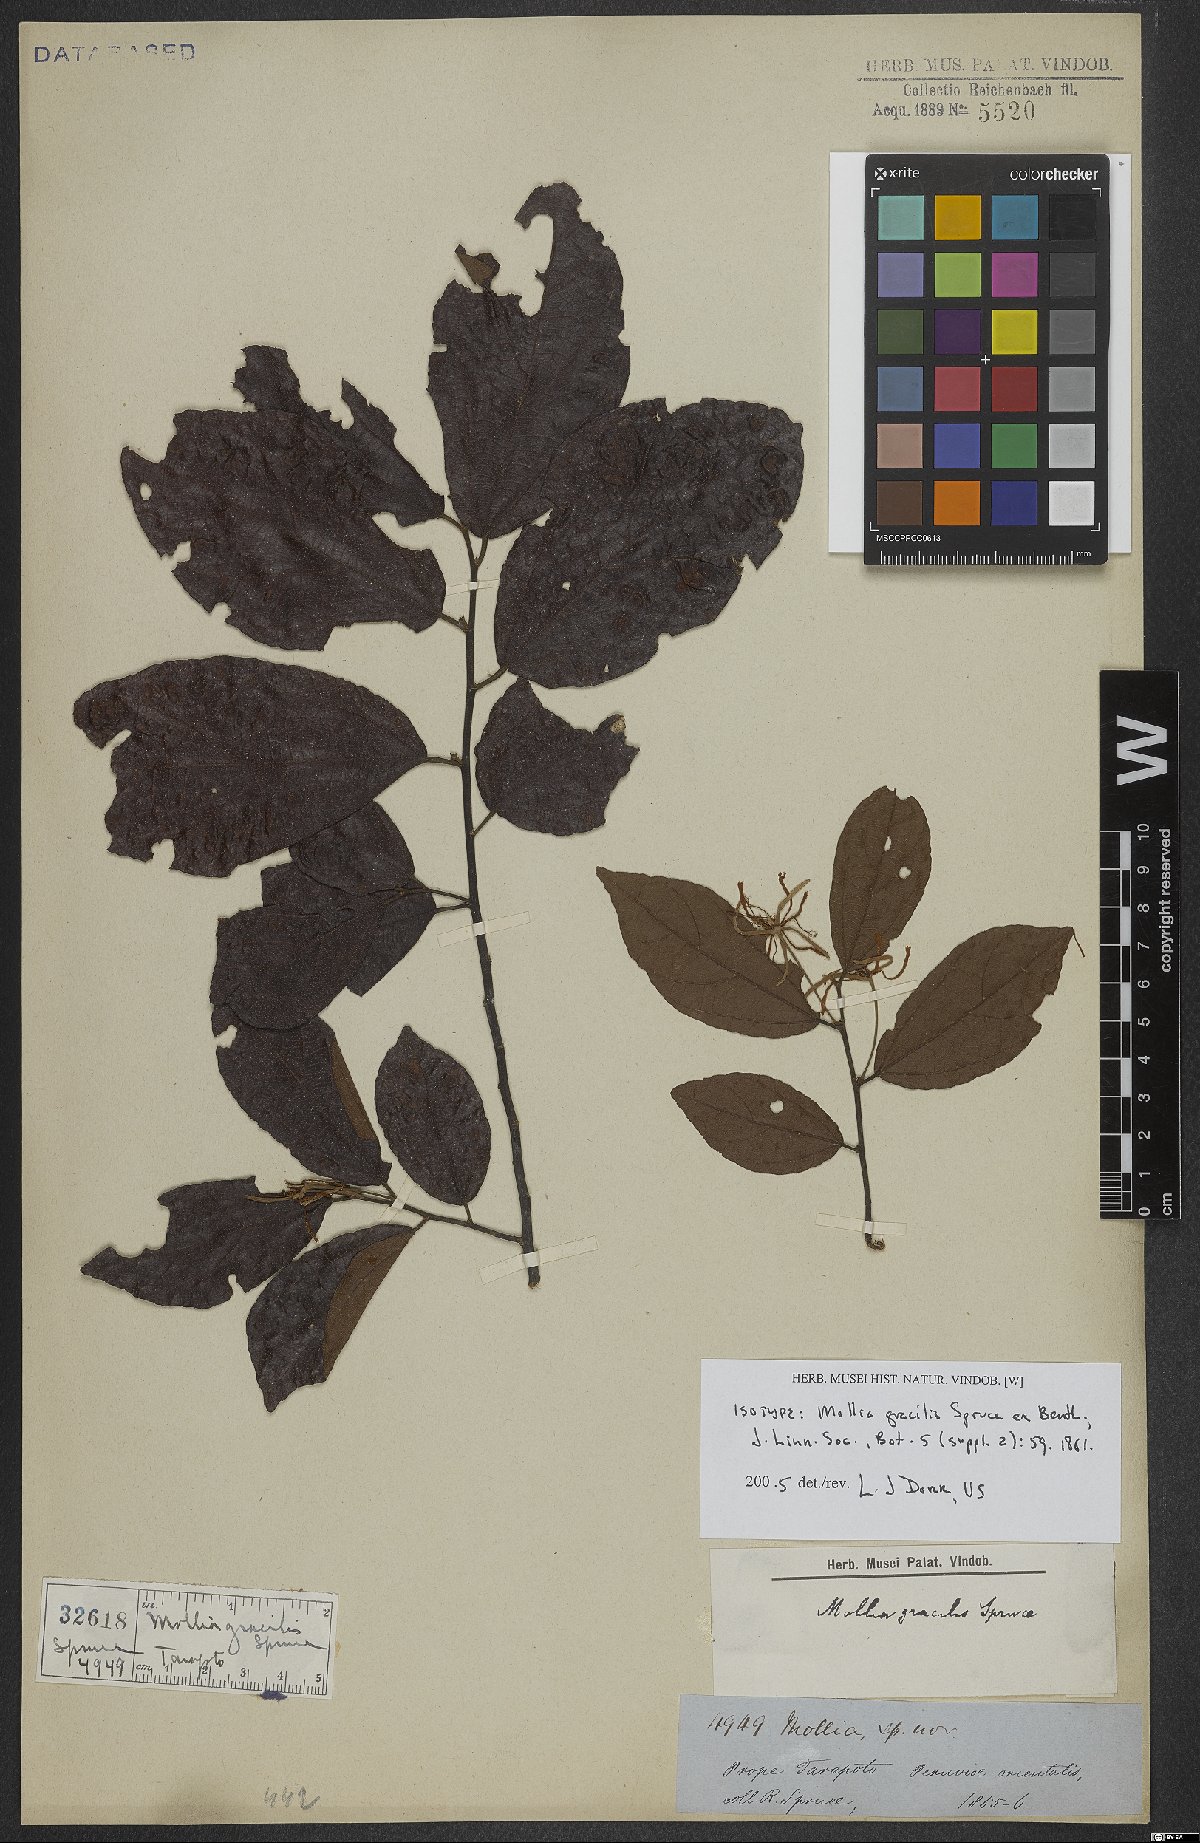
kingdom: Plantae
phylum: Tracheophyta
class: Magnoliopsida
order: Malvales
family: Malvaceae
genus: Mollia
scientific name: Mollia gracilis
